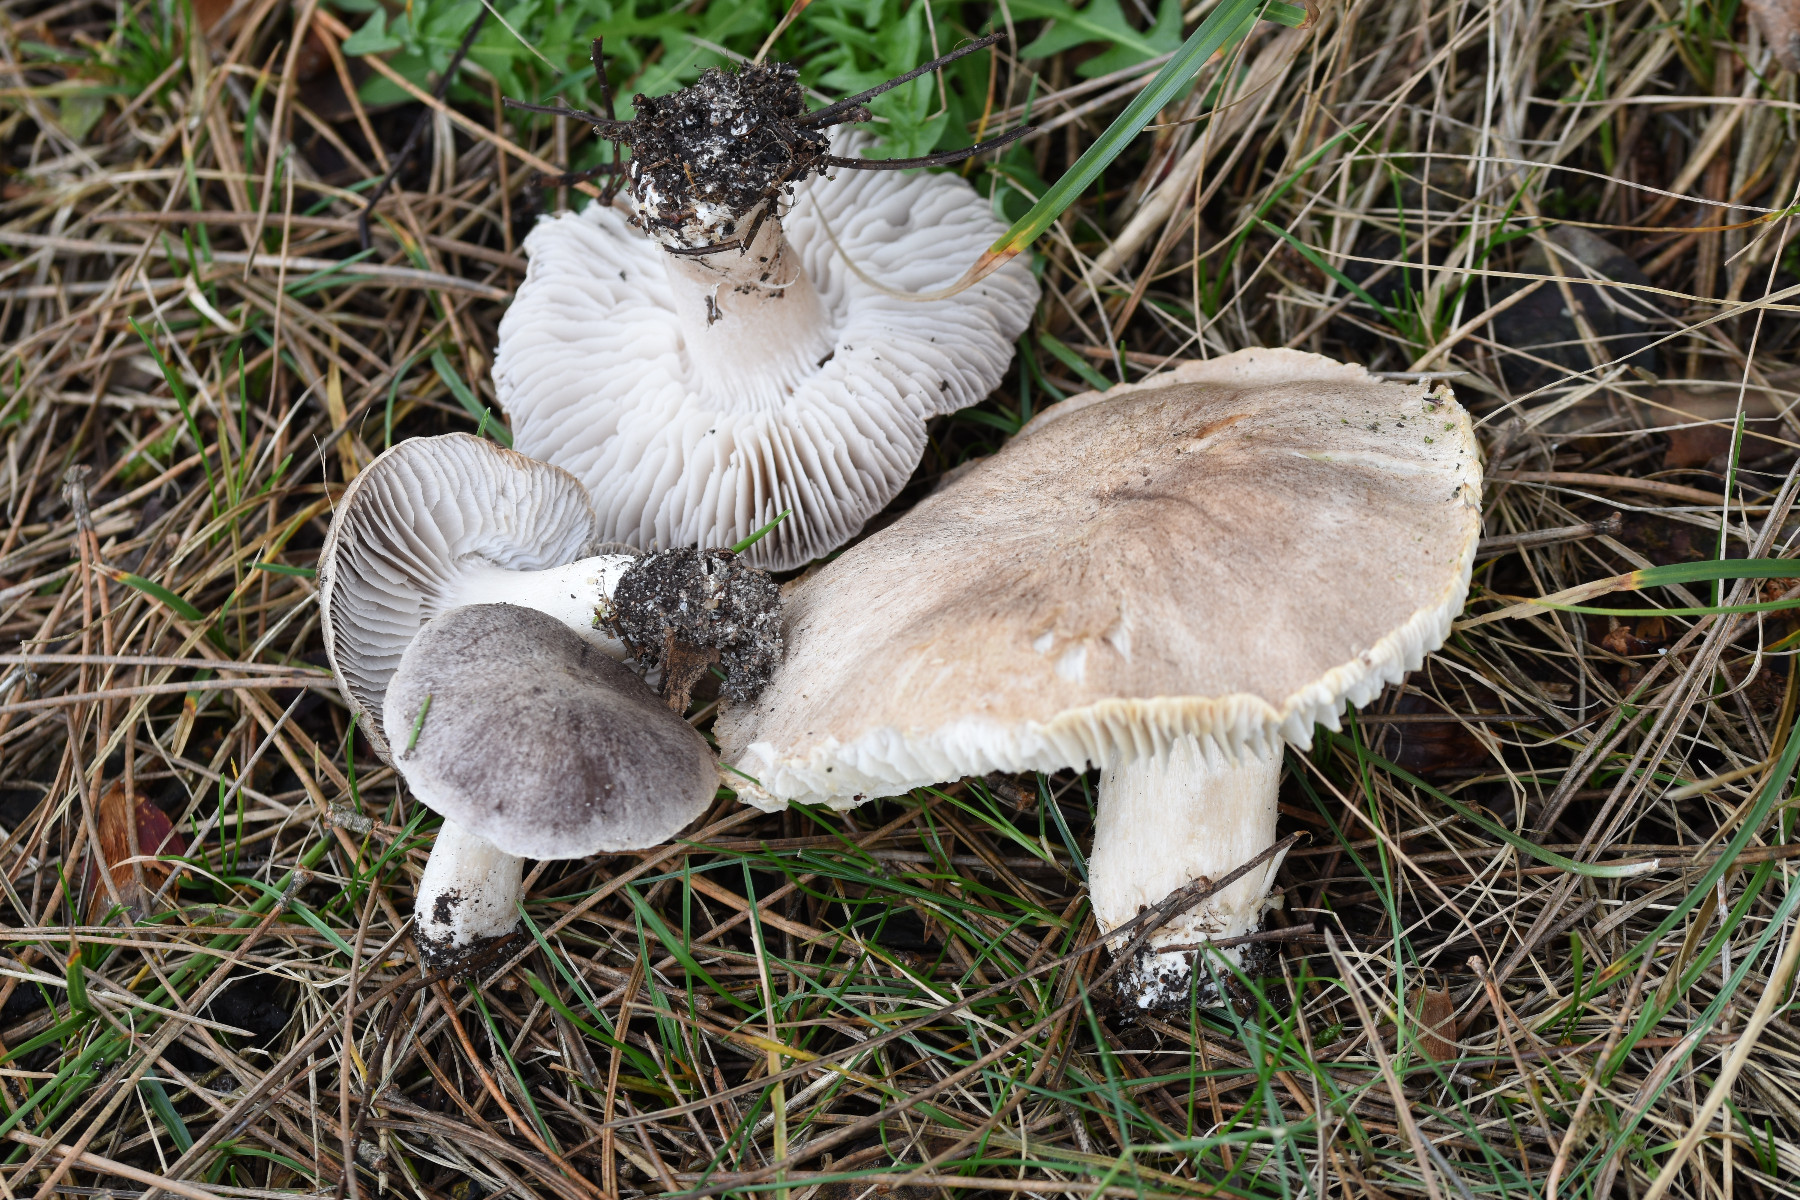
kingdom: Fungi
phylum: Basidiomycota
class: Agaricomycetes
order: Agaricales
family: Tricholomataceae
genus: Tricholoma
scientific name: Tricholoma terreum
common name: jordfarvet ridderhat
